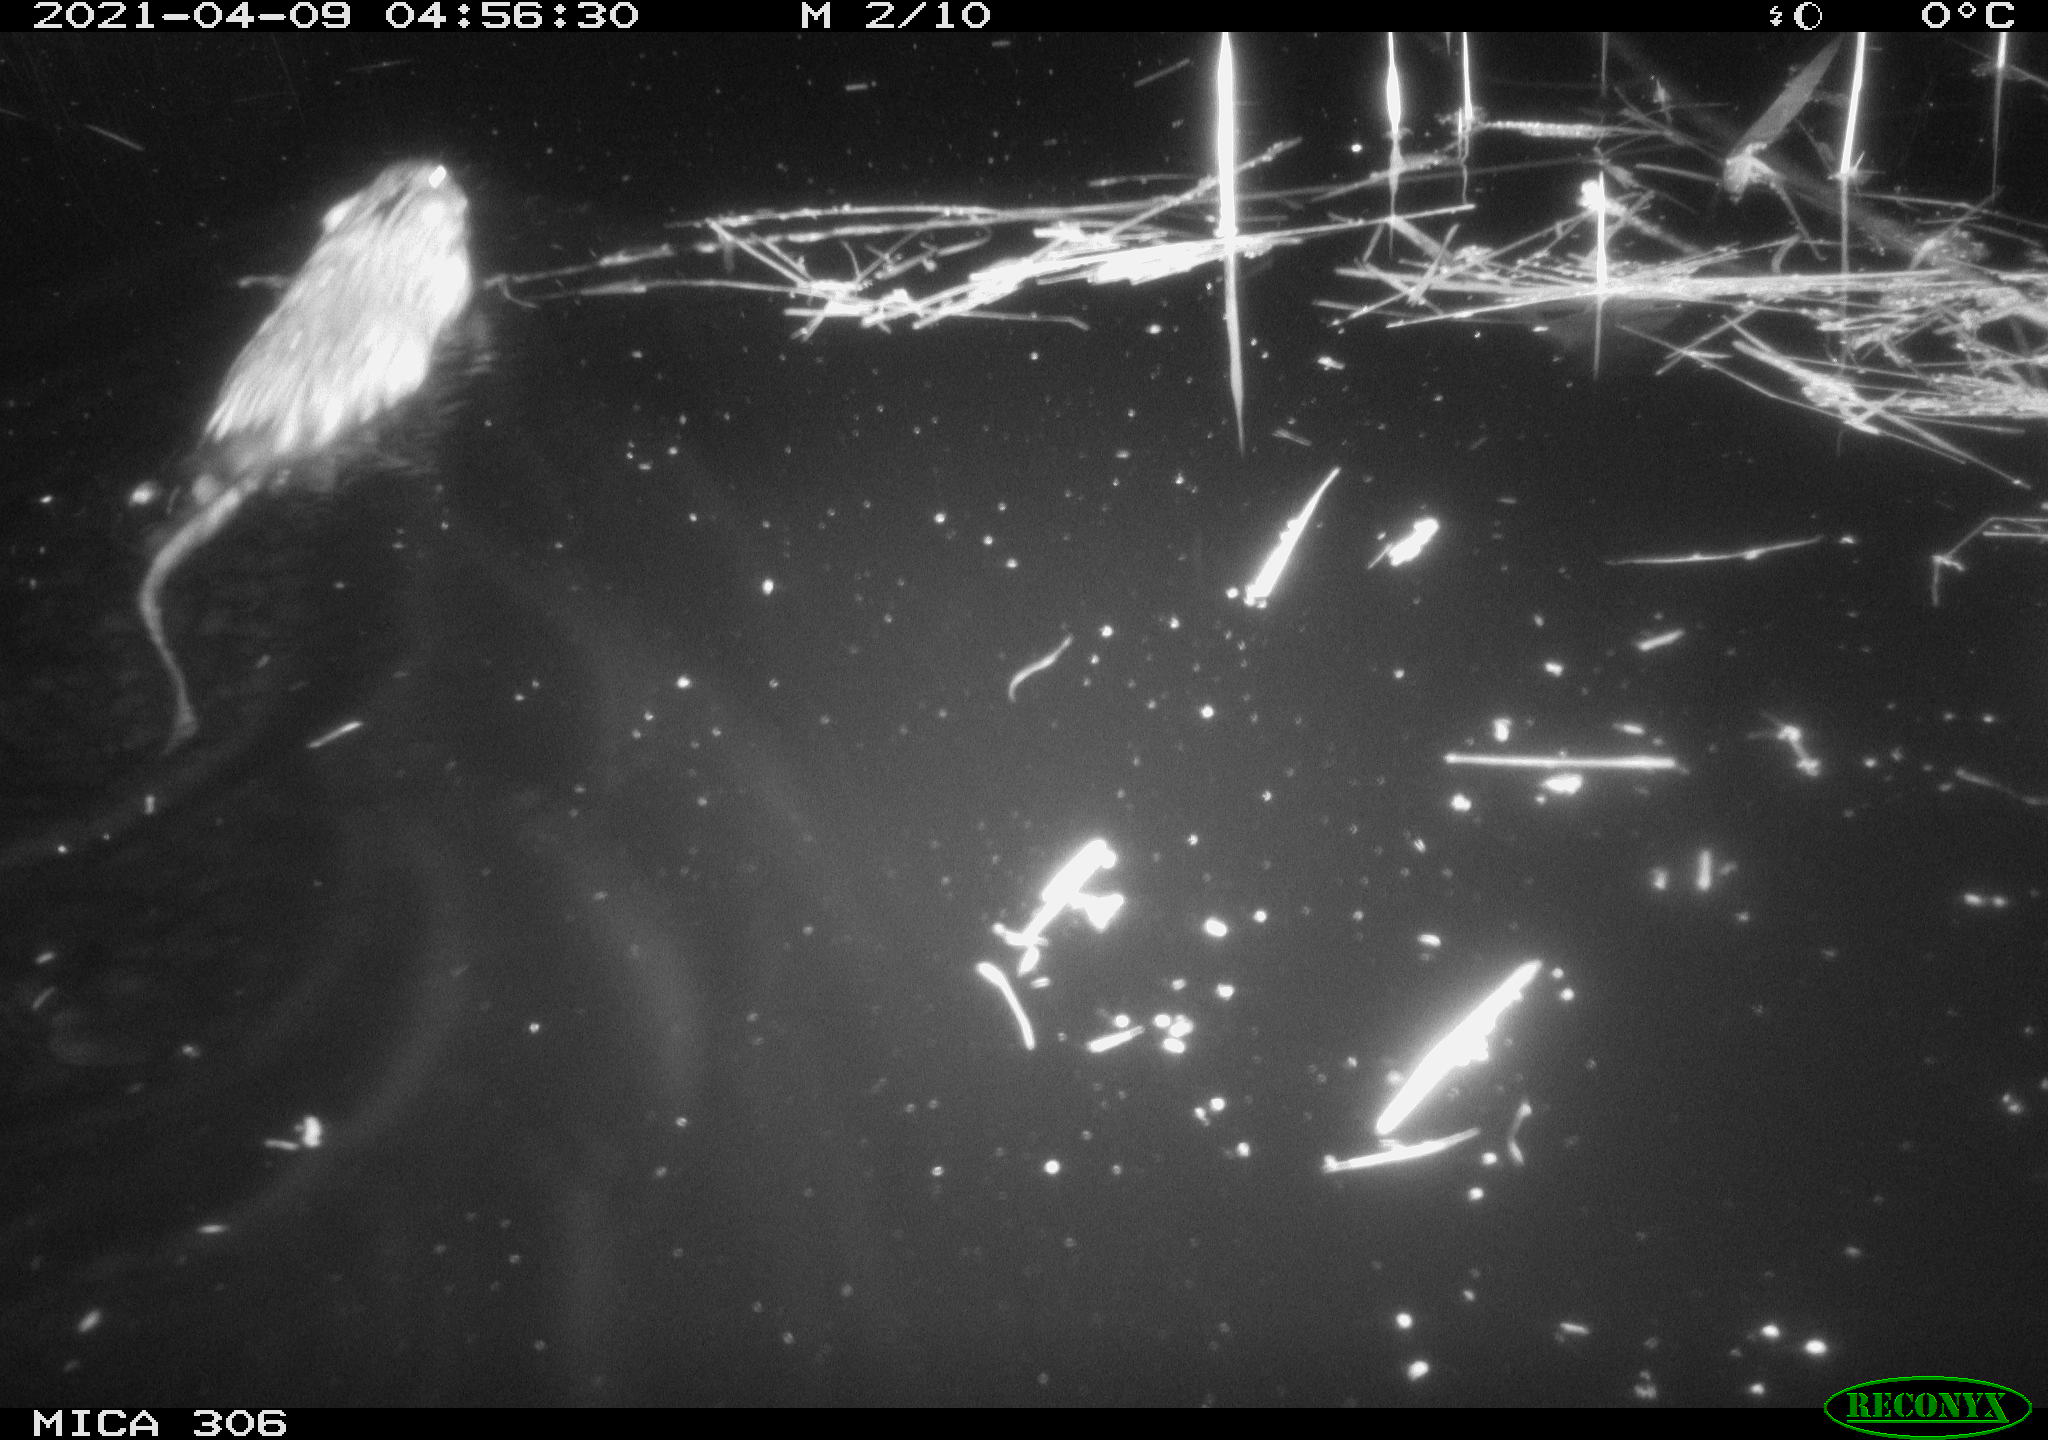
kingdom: Animalia
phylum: Chordata
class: Mammalia
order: Rodentia
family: Cricetidae
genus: Ondatra
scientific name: Ondatra zibethicus
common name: Muskrat
